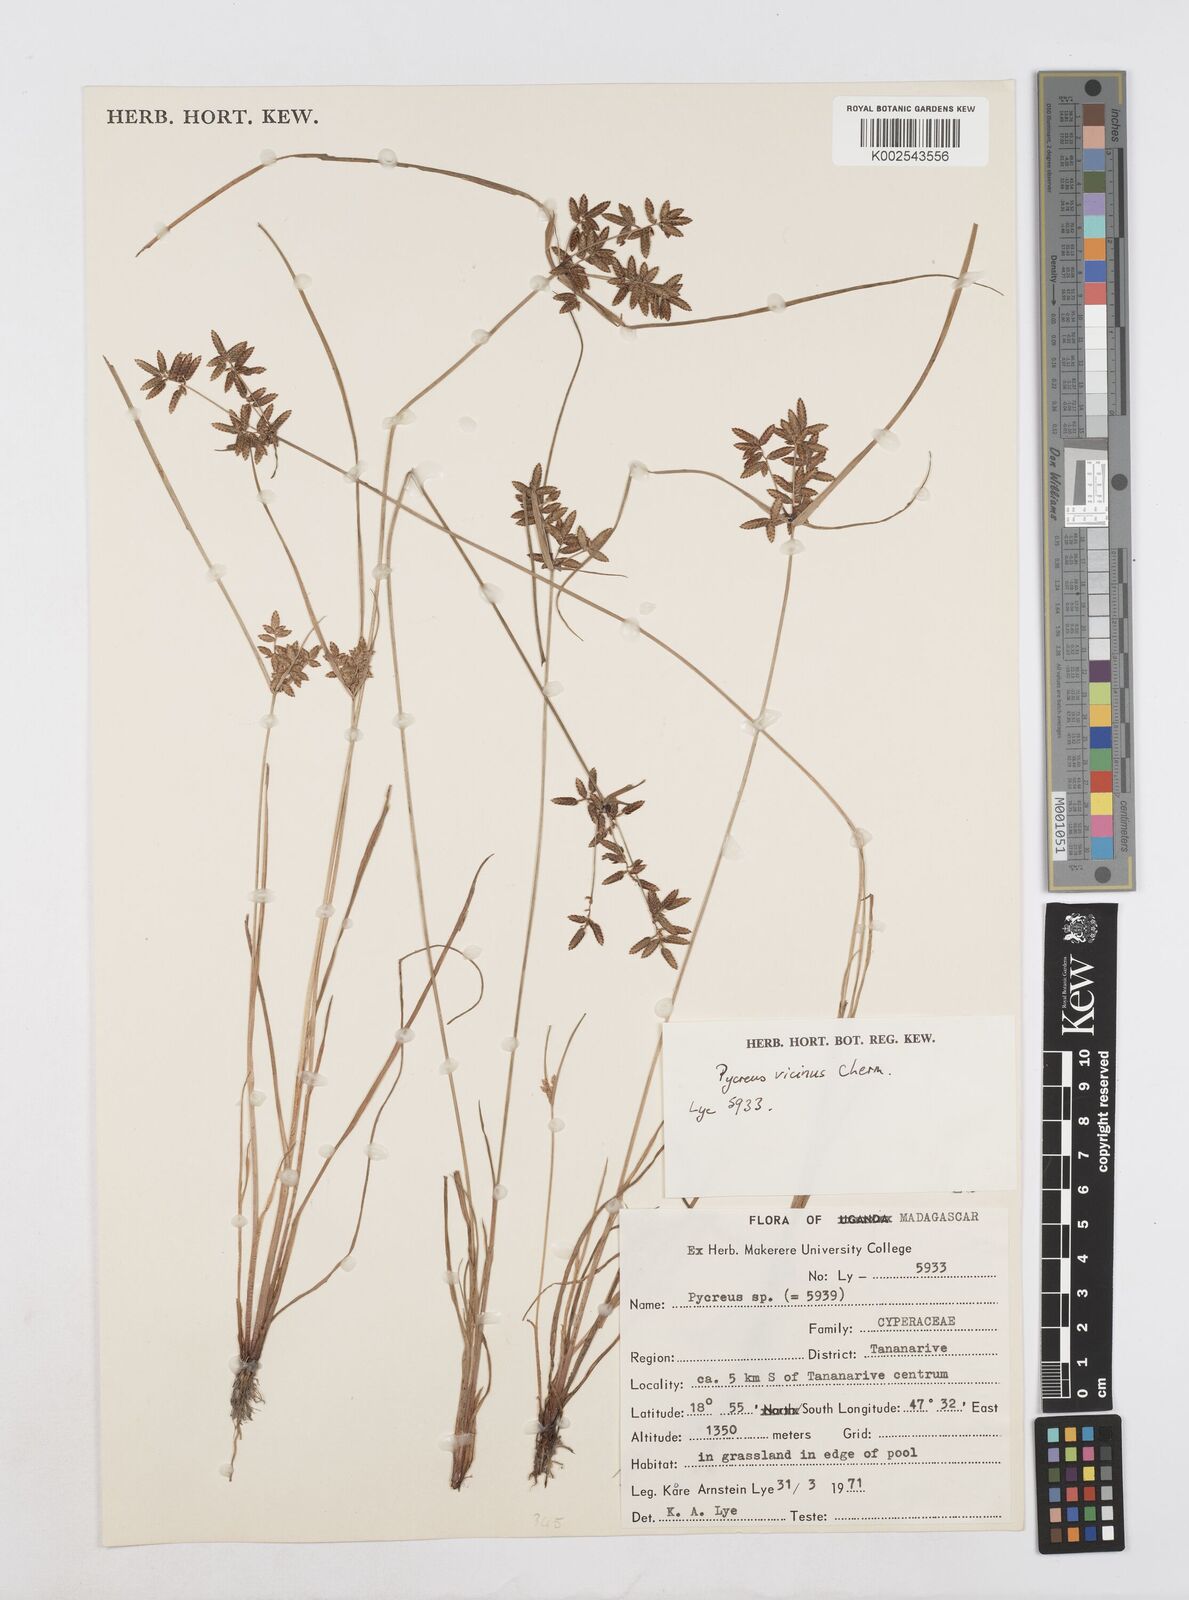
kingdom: Plantae
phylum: Tracheophyta
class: Liliopsida
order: Poales
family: Cyperaceae
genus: Cyperus
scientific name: Cyperus
